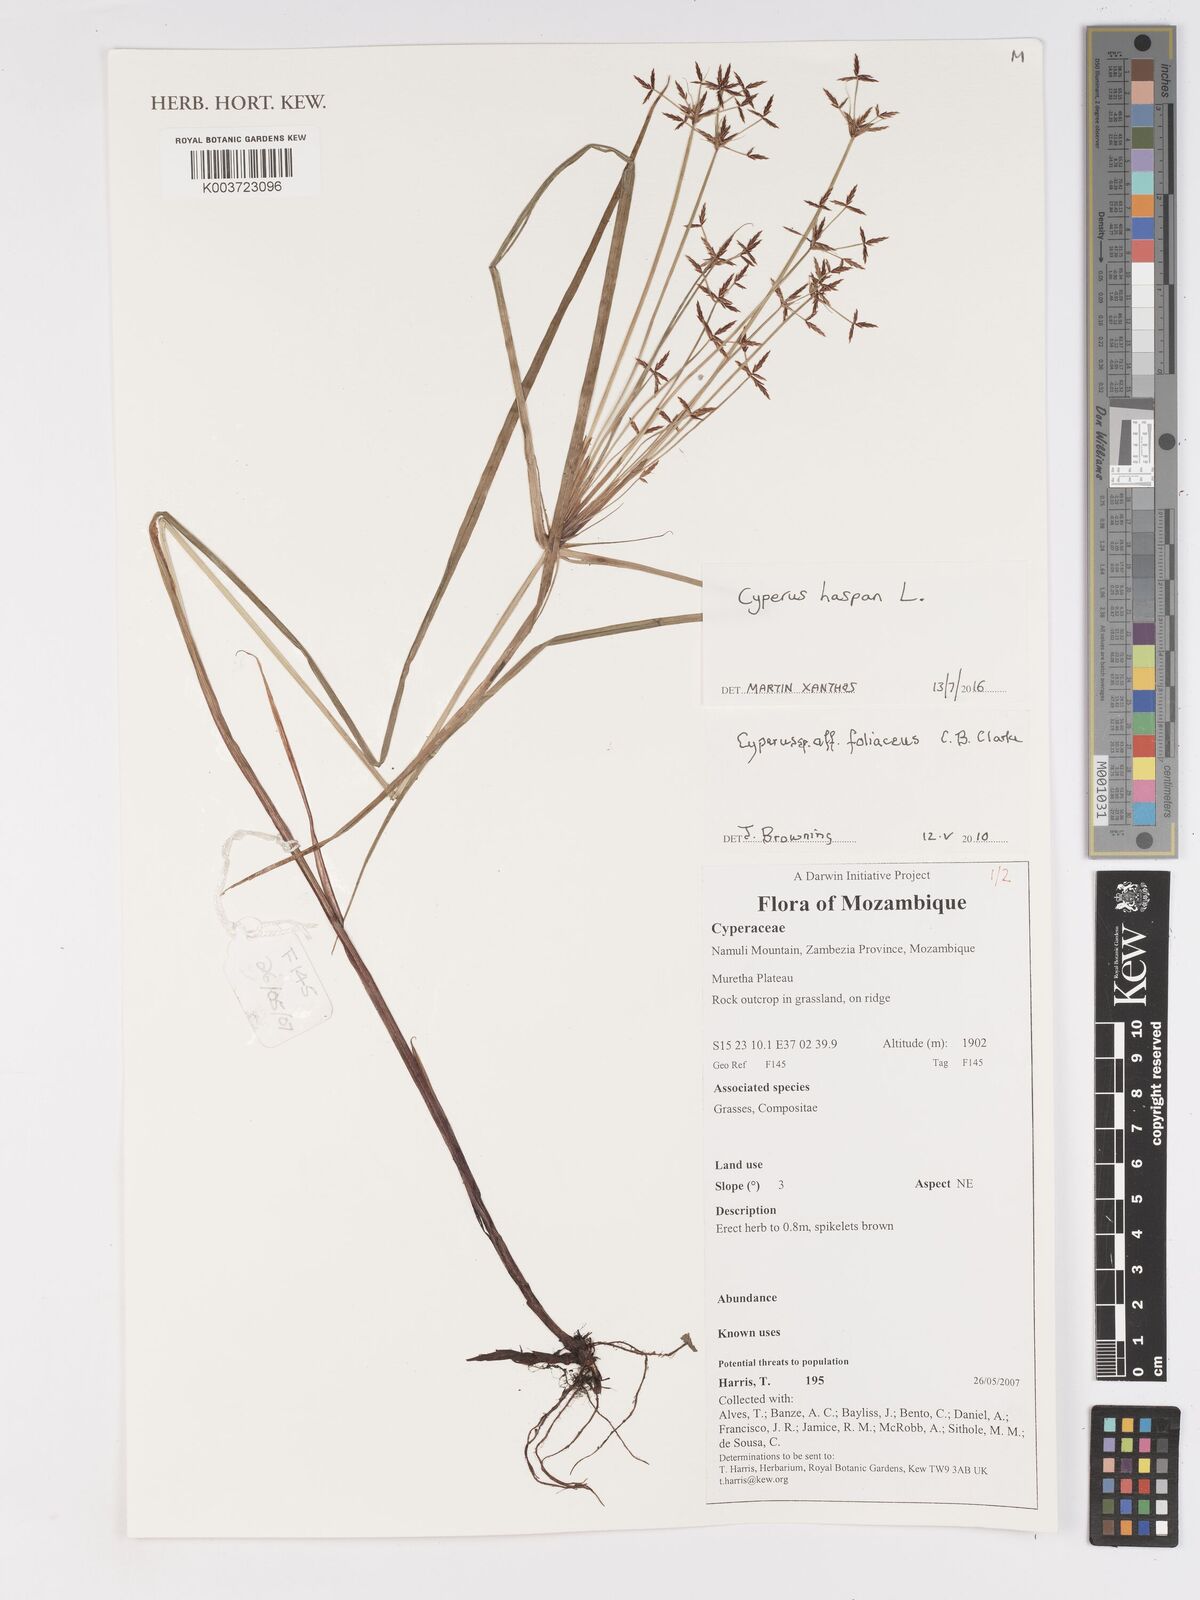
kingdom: Plantae
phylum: Tracheophyta
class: Liliopsida
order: Poales
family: Cyperaceae
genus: Cyperus
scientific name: Cyperus haspan
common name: Haspan flatsedge
